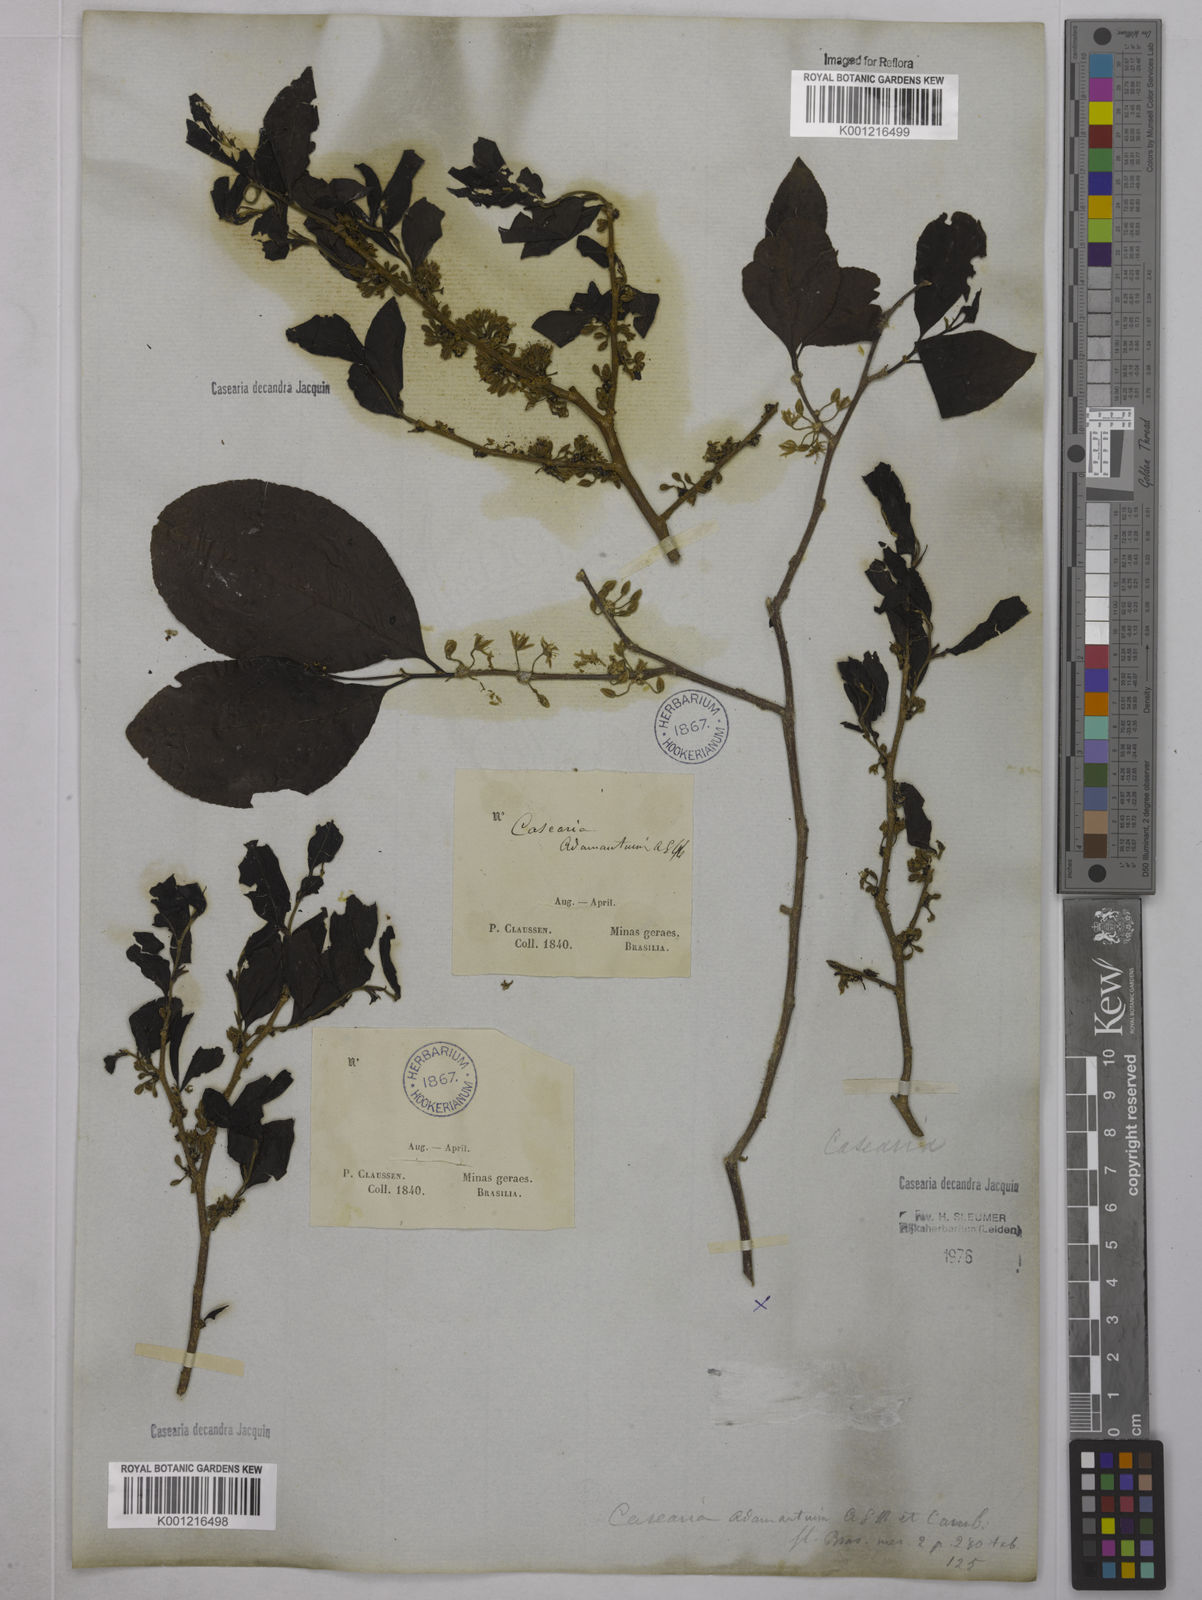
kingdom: Plantae
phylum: Tracheophyta
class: Magnoliopsida
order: Malpighiales
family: Salicaceae
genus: Casearia
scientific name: Casearia decandra
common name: Crack open
